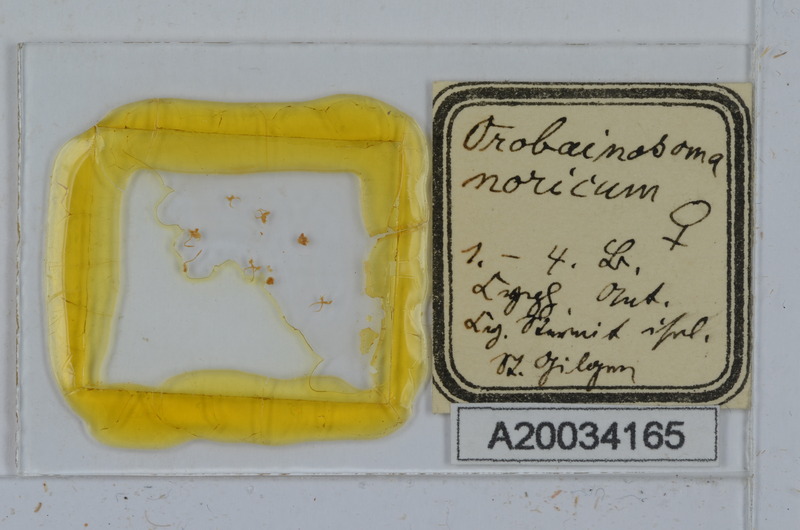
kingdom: Animalia
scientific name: Animalia
